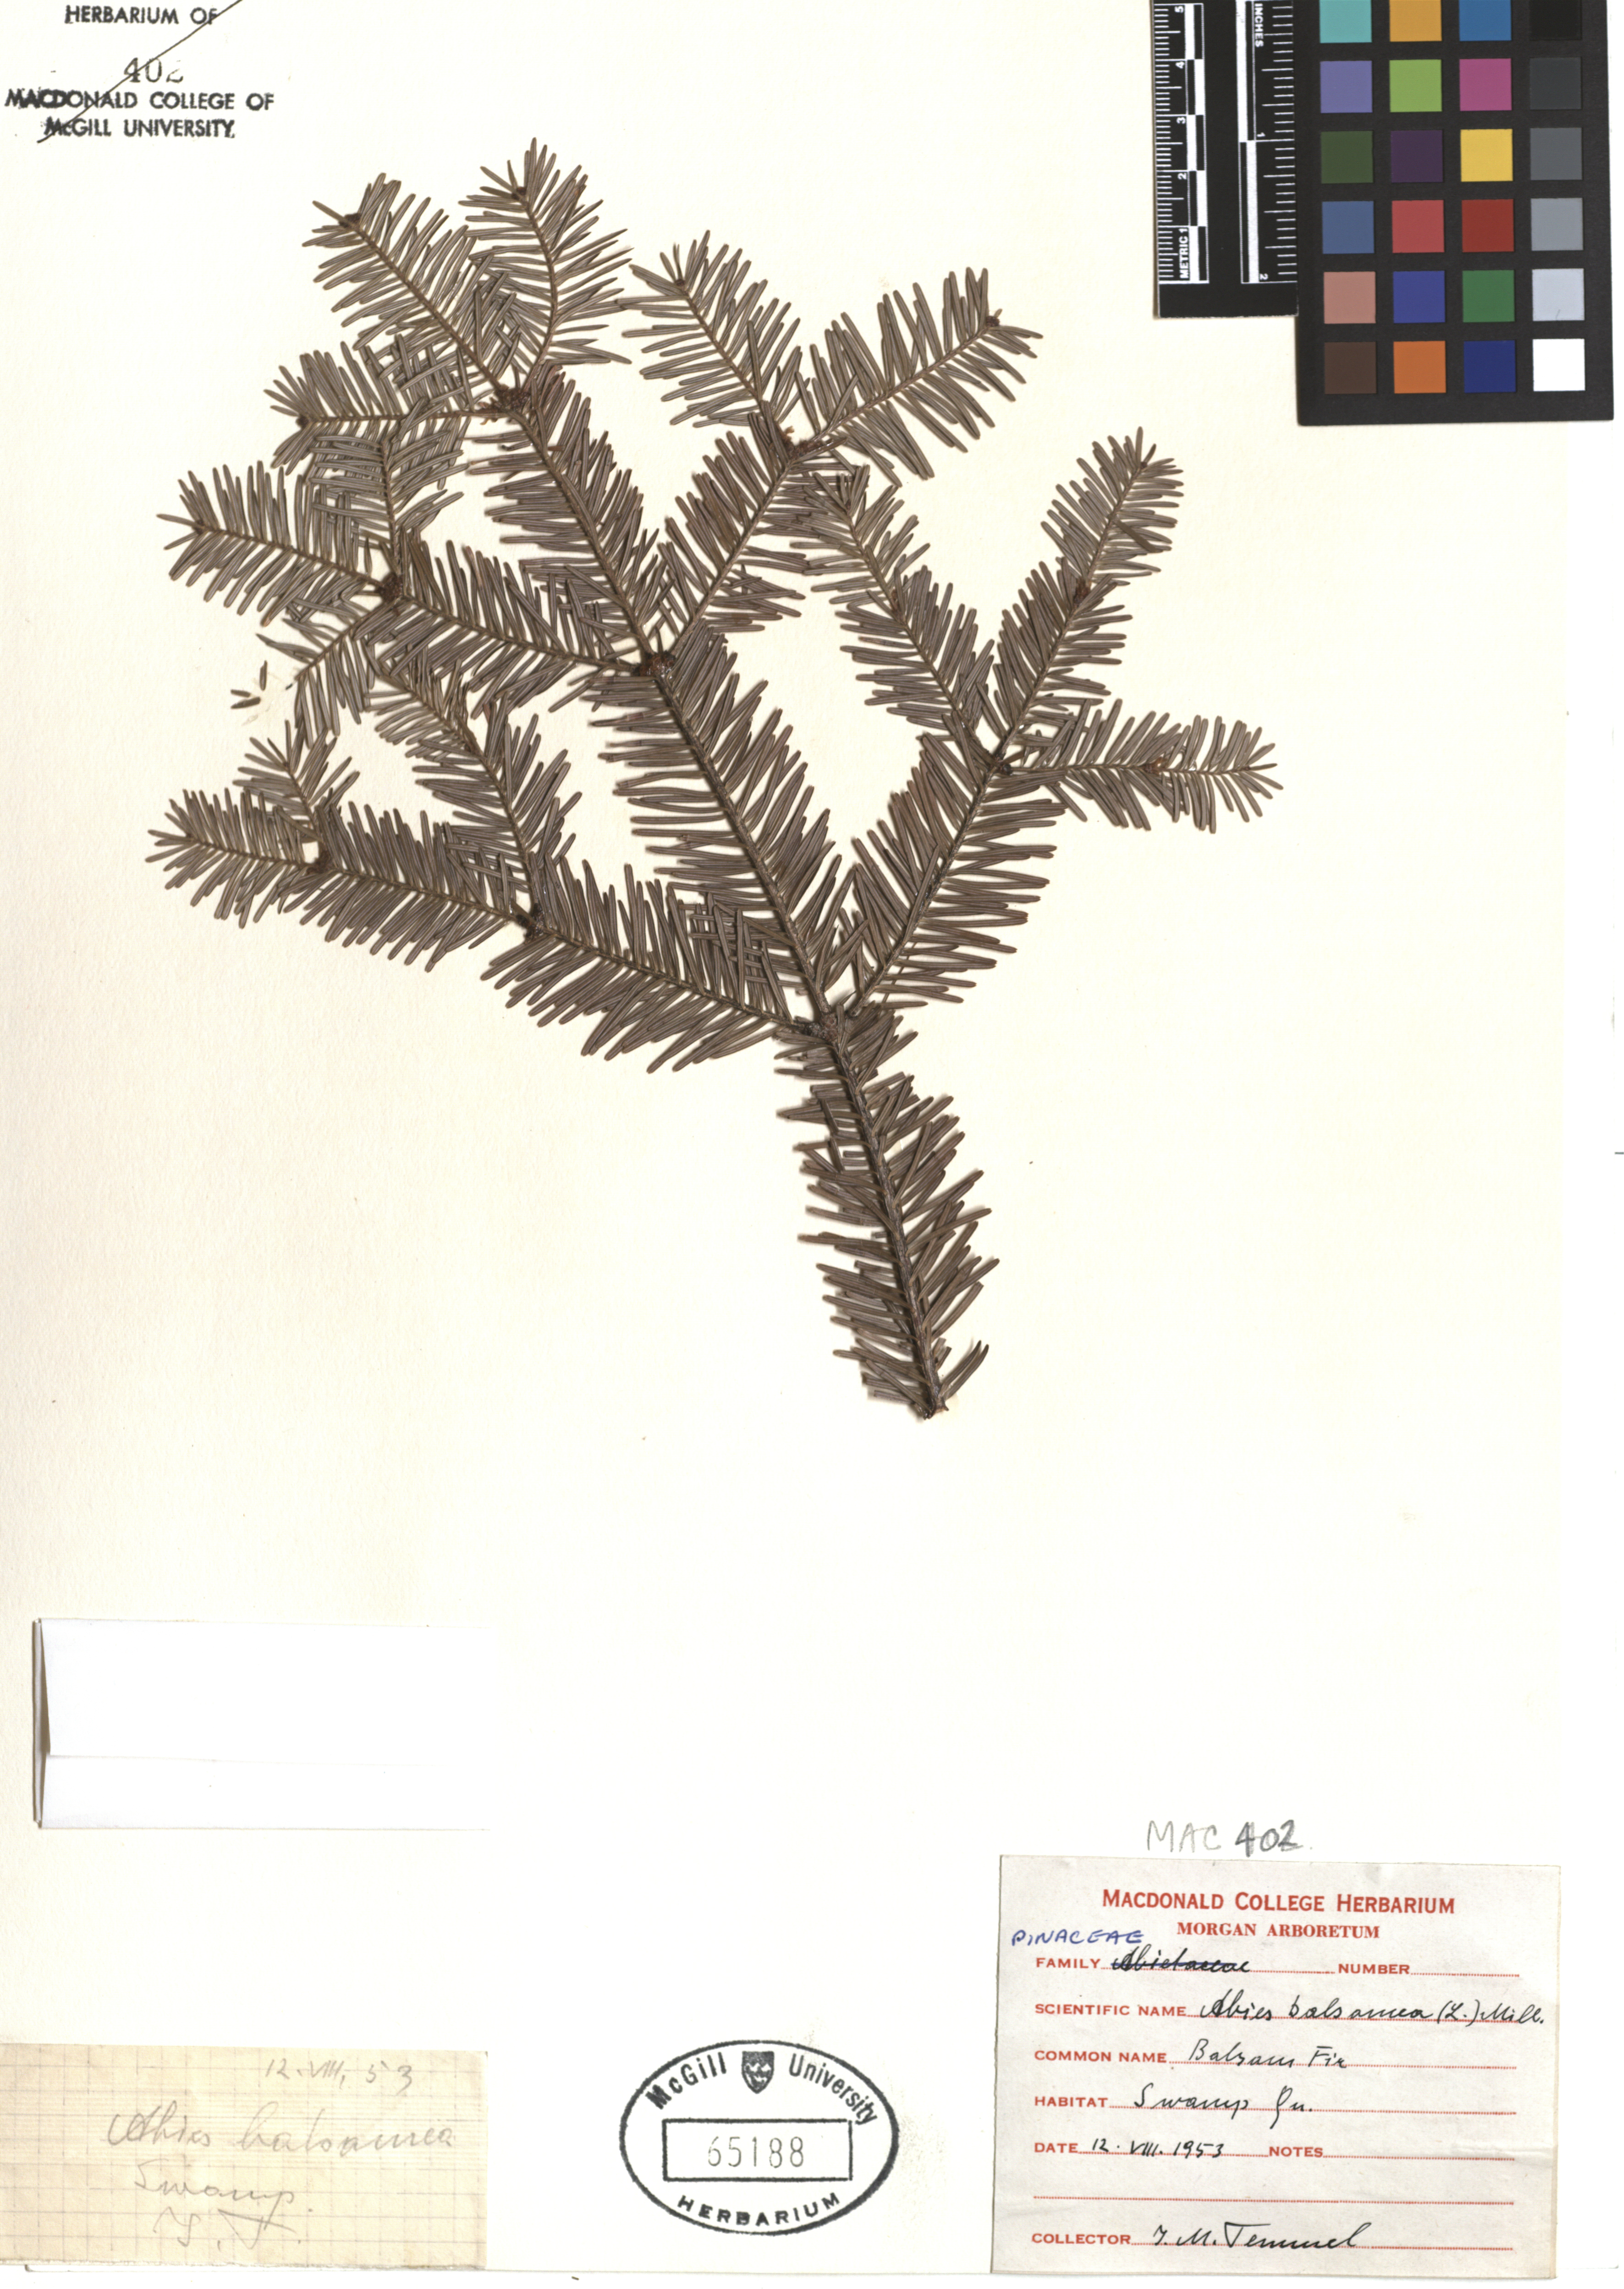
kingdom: Plantae
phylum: Tracheophyta
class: Pinopsida
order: Pinales
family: Pinaceae
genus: Abies
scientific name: Abies balsamea
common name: Balsam fir
